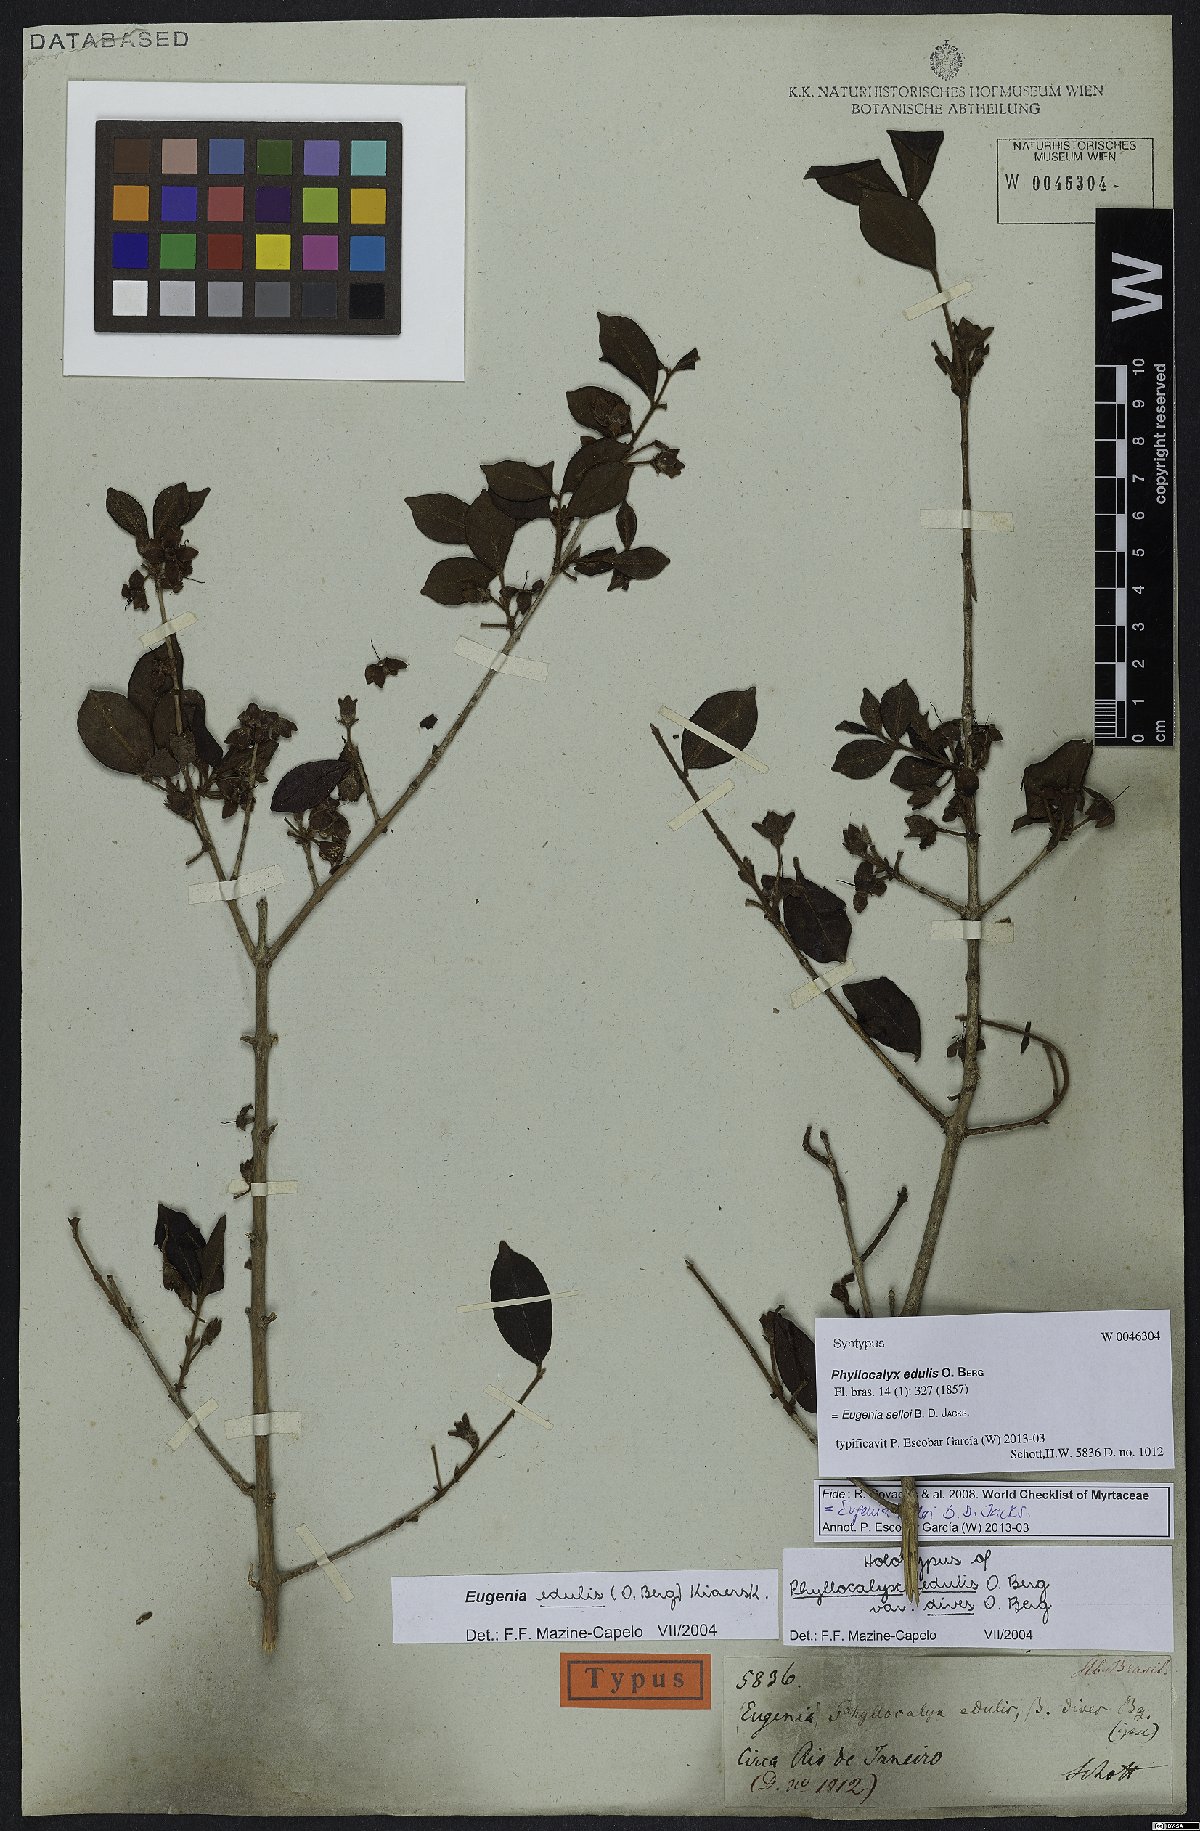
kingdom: Plantae
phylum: Tracheophyta
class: Magnoliopsida
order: Myrtales
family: Myrtaceae
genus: Eugenia
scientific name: Eugenia selloi
